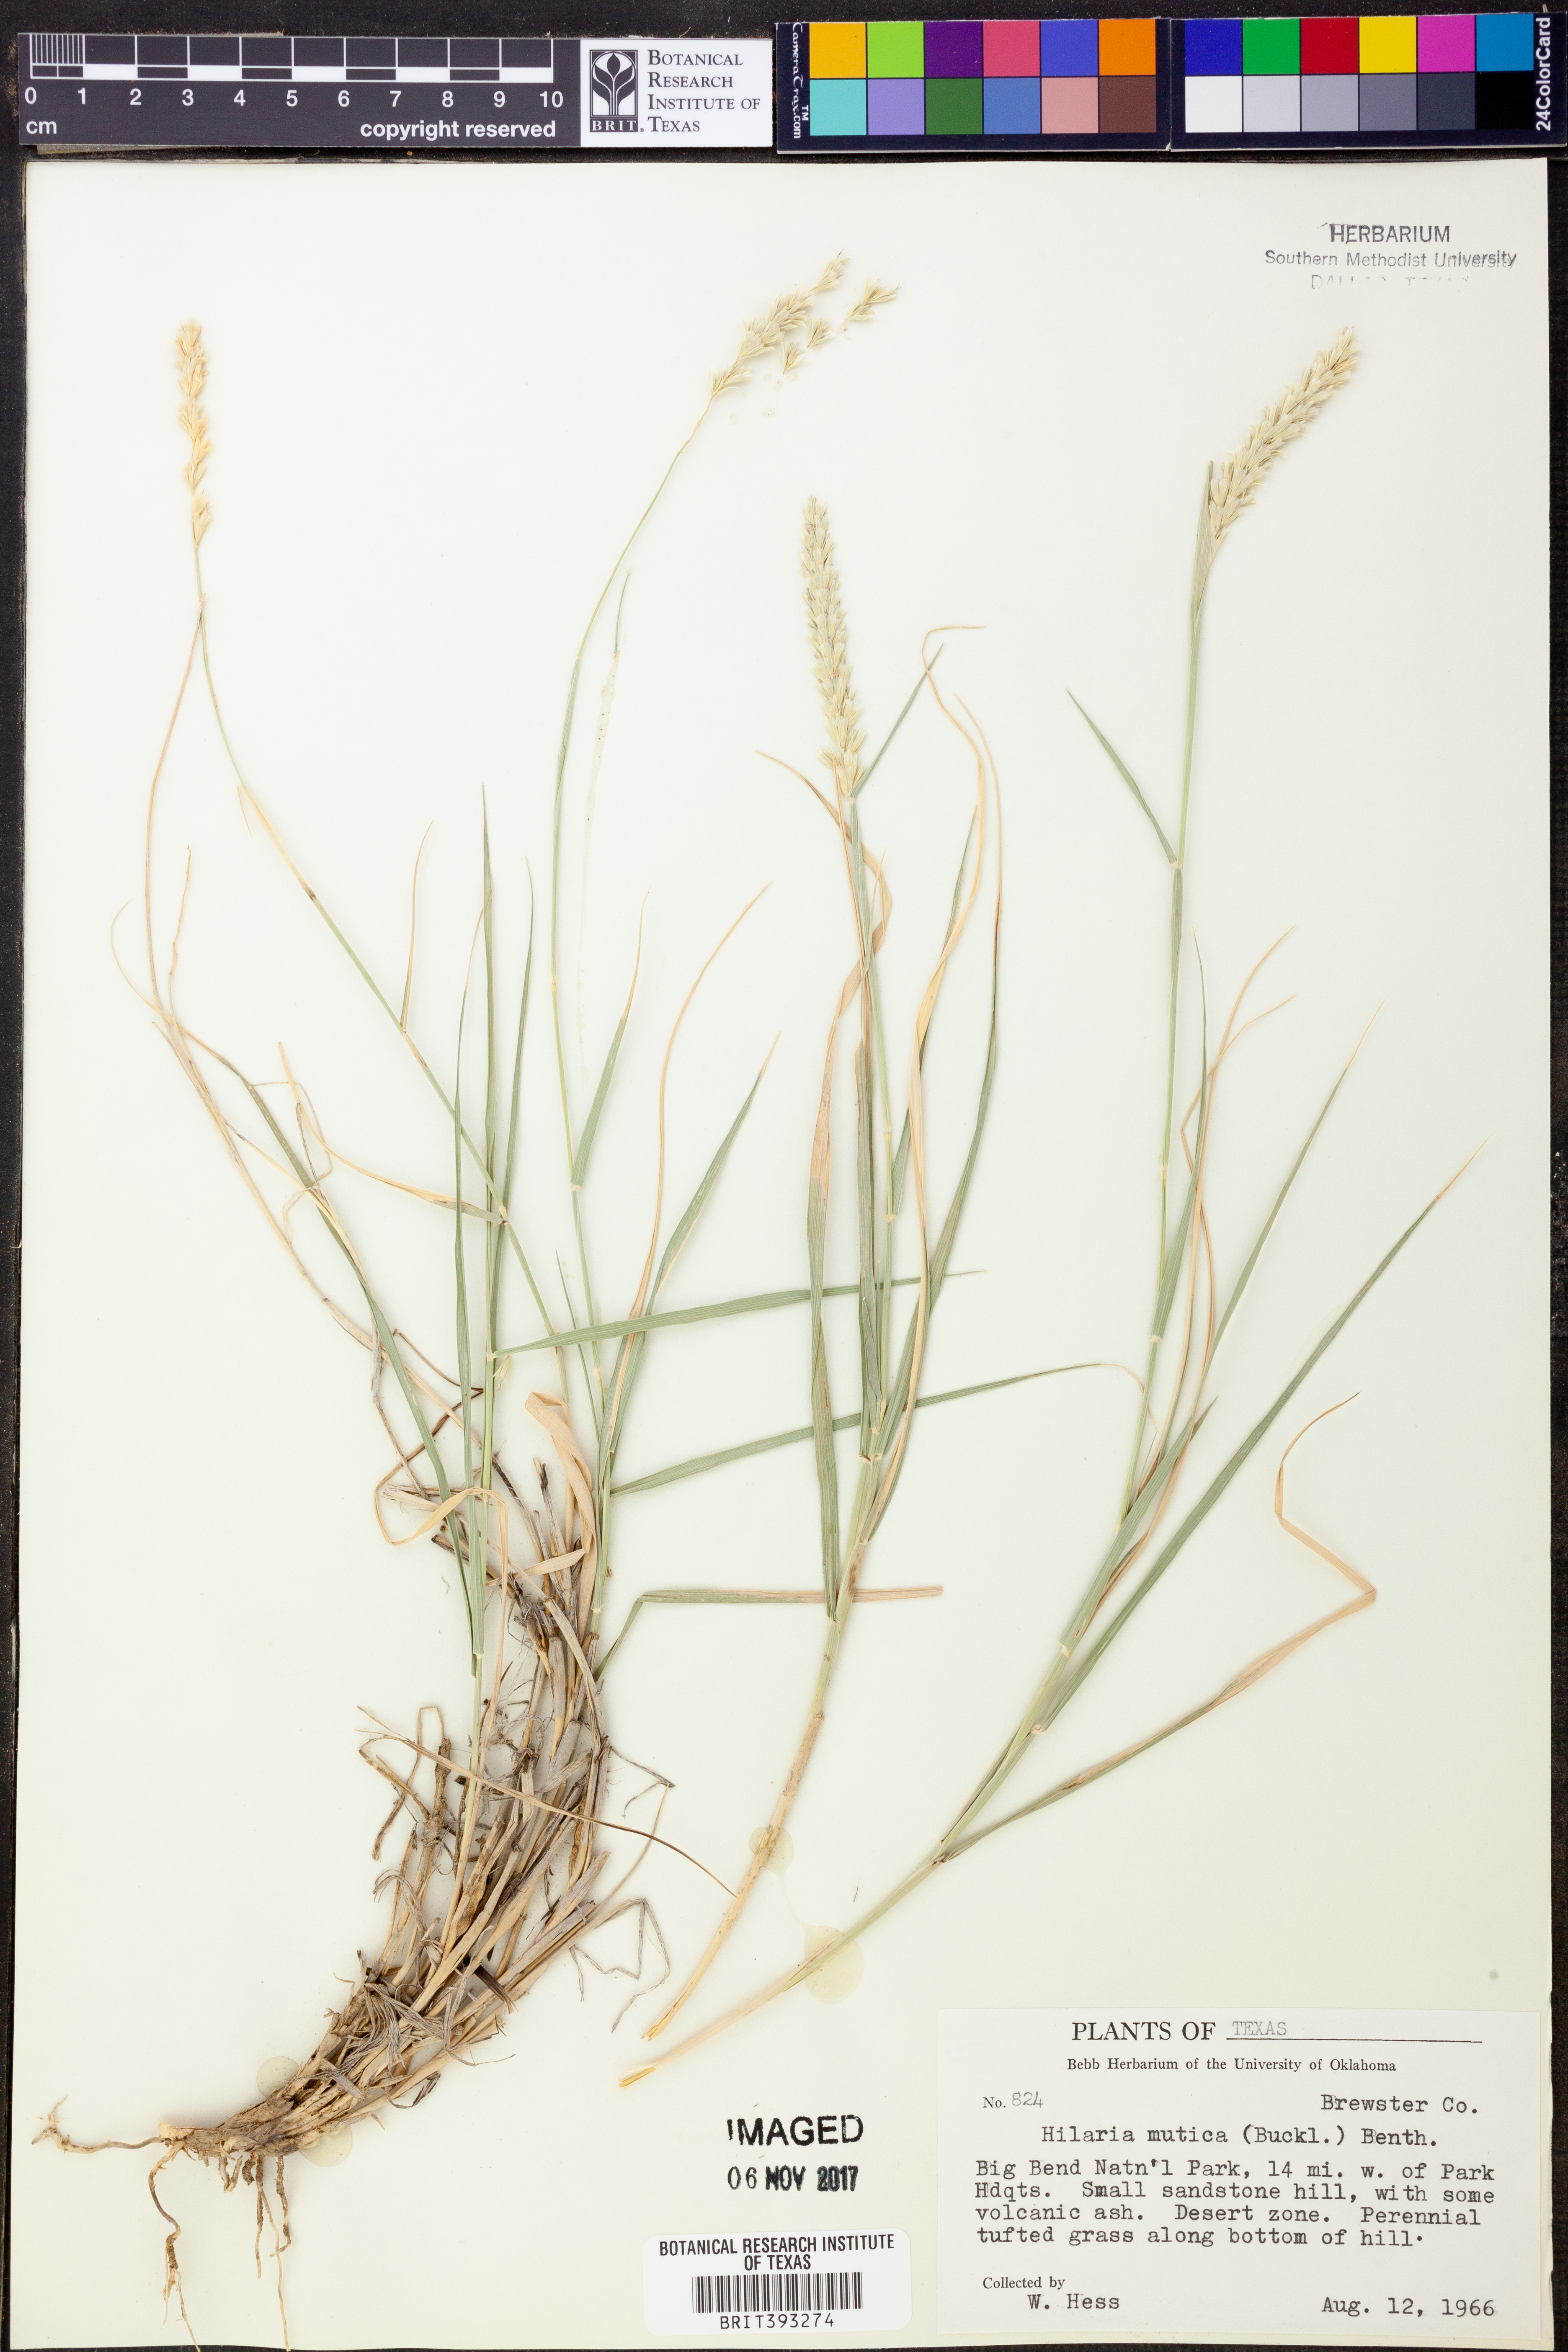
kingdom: Plantae
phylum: Tracheophyta
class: Liliopsida
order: Poales
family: Poaceae
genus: Hilaria
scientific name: Hilaria mutica
